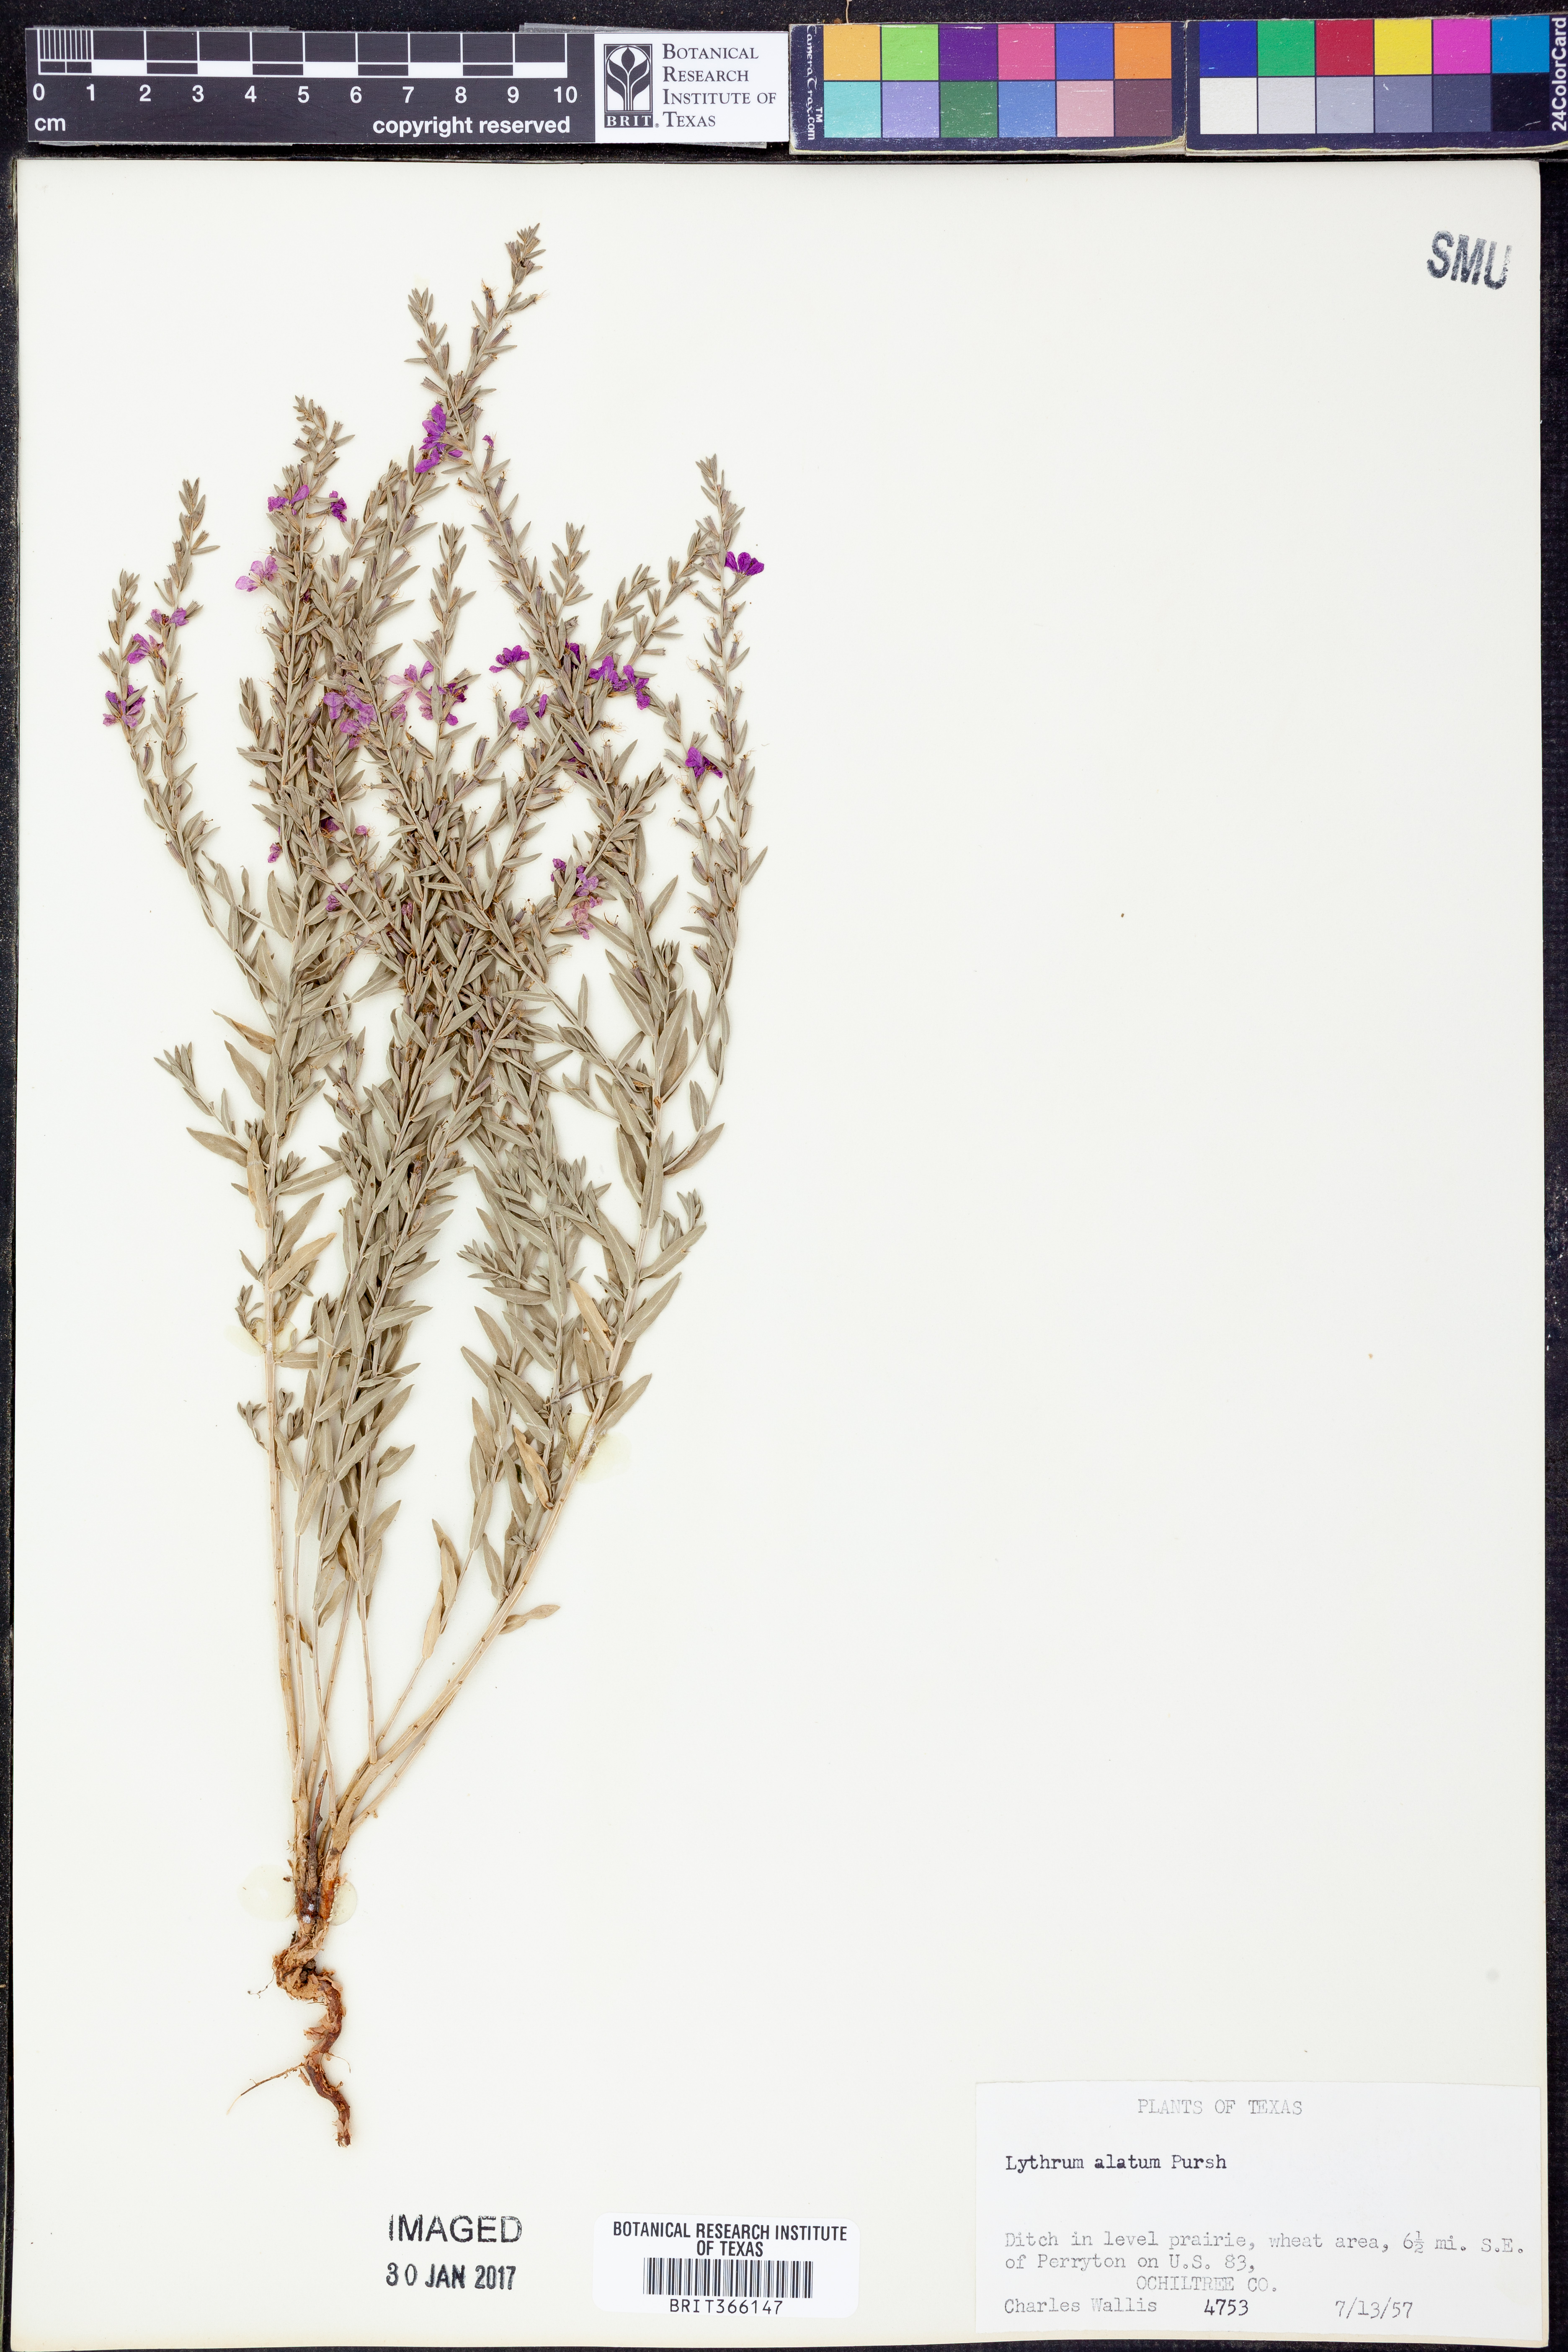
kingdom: Plantae
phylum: Tracheophyta
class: Magnoliopsida
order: Myrtales
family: Lythraceae
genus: Lythrum
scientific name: Lythrum alatum
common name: Winged loosestrife
